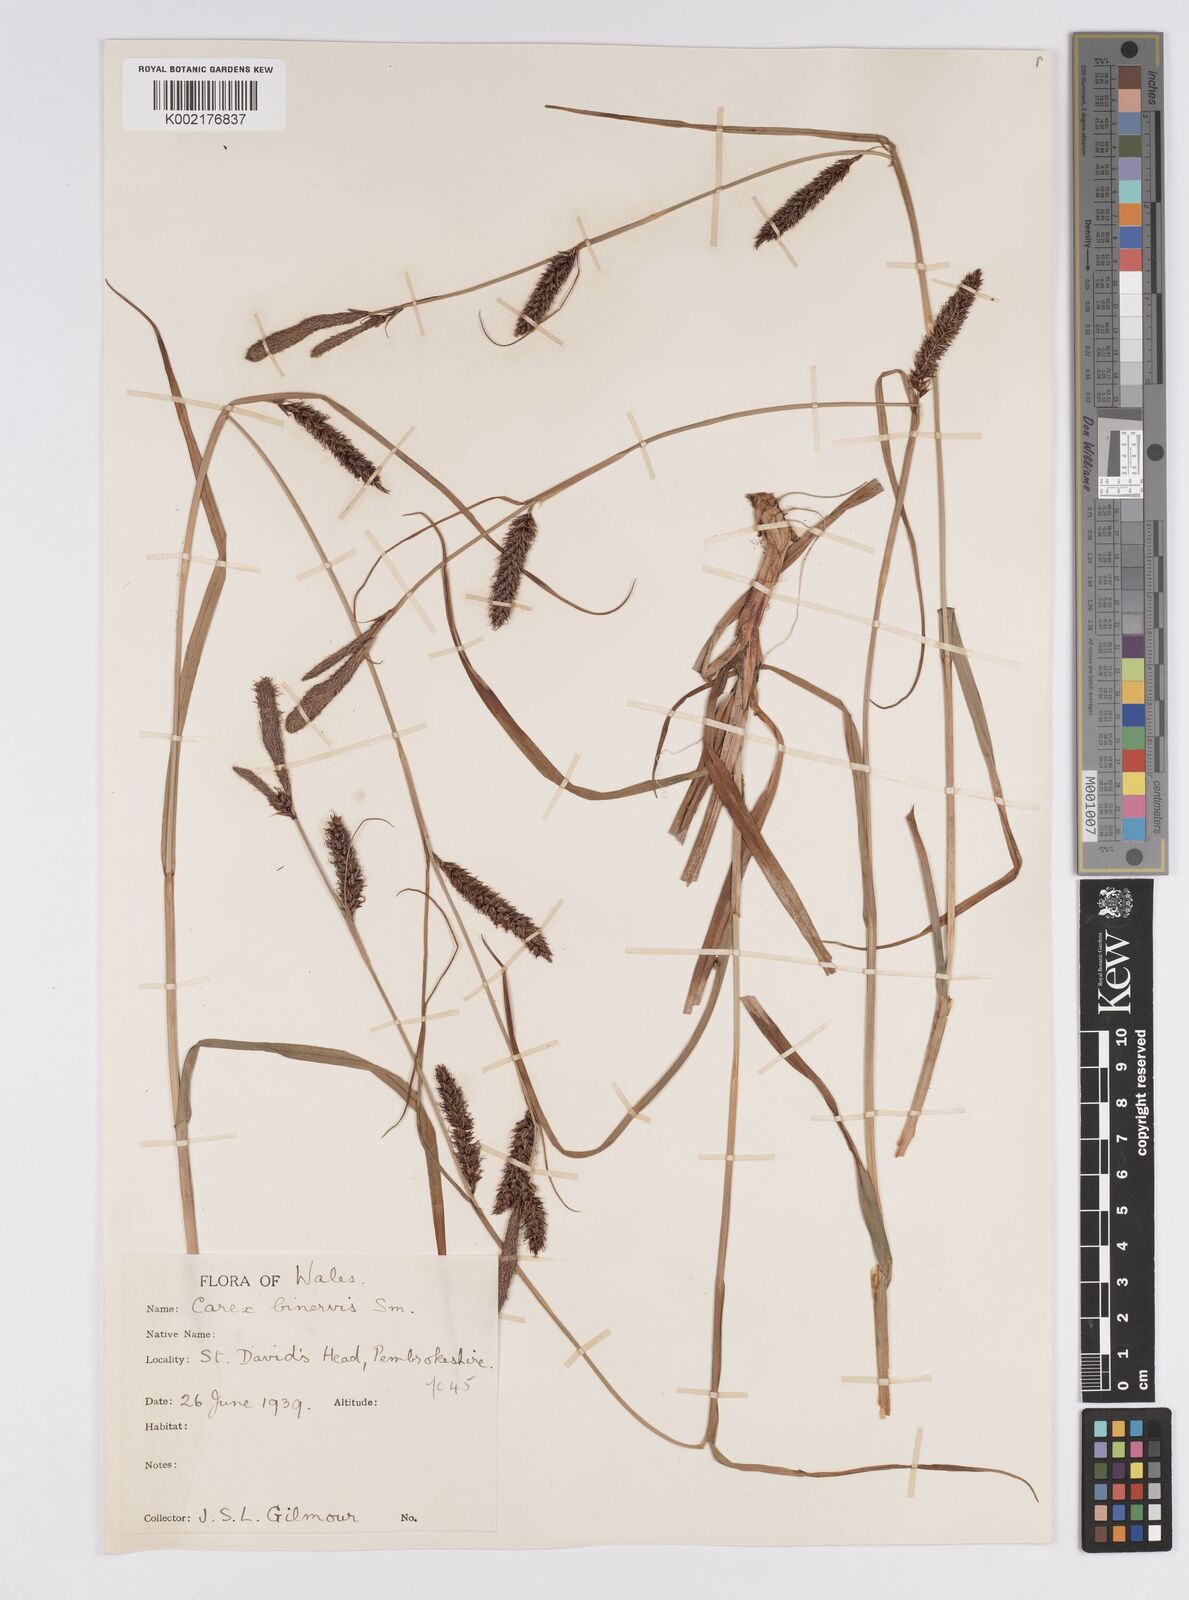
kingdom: Plantae
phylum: Tracheophyta
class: Liliopsida
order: Poales
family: Cyperaceae
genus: Carex
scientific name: Carex binervis
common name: Green-ribbed sedge
